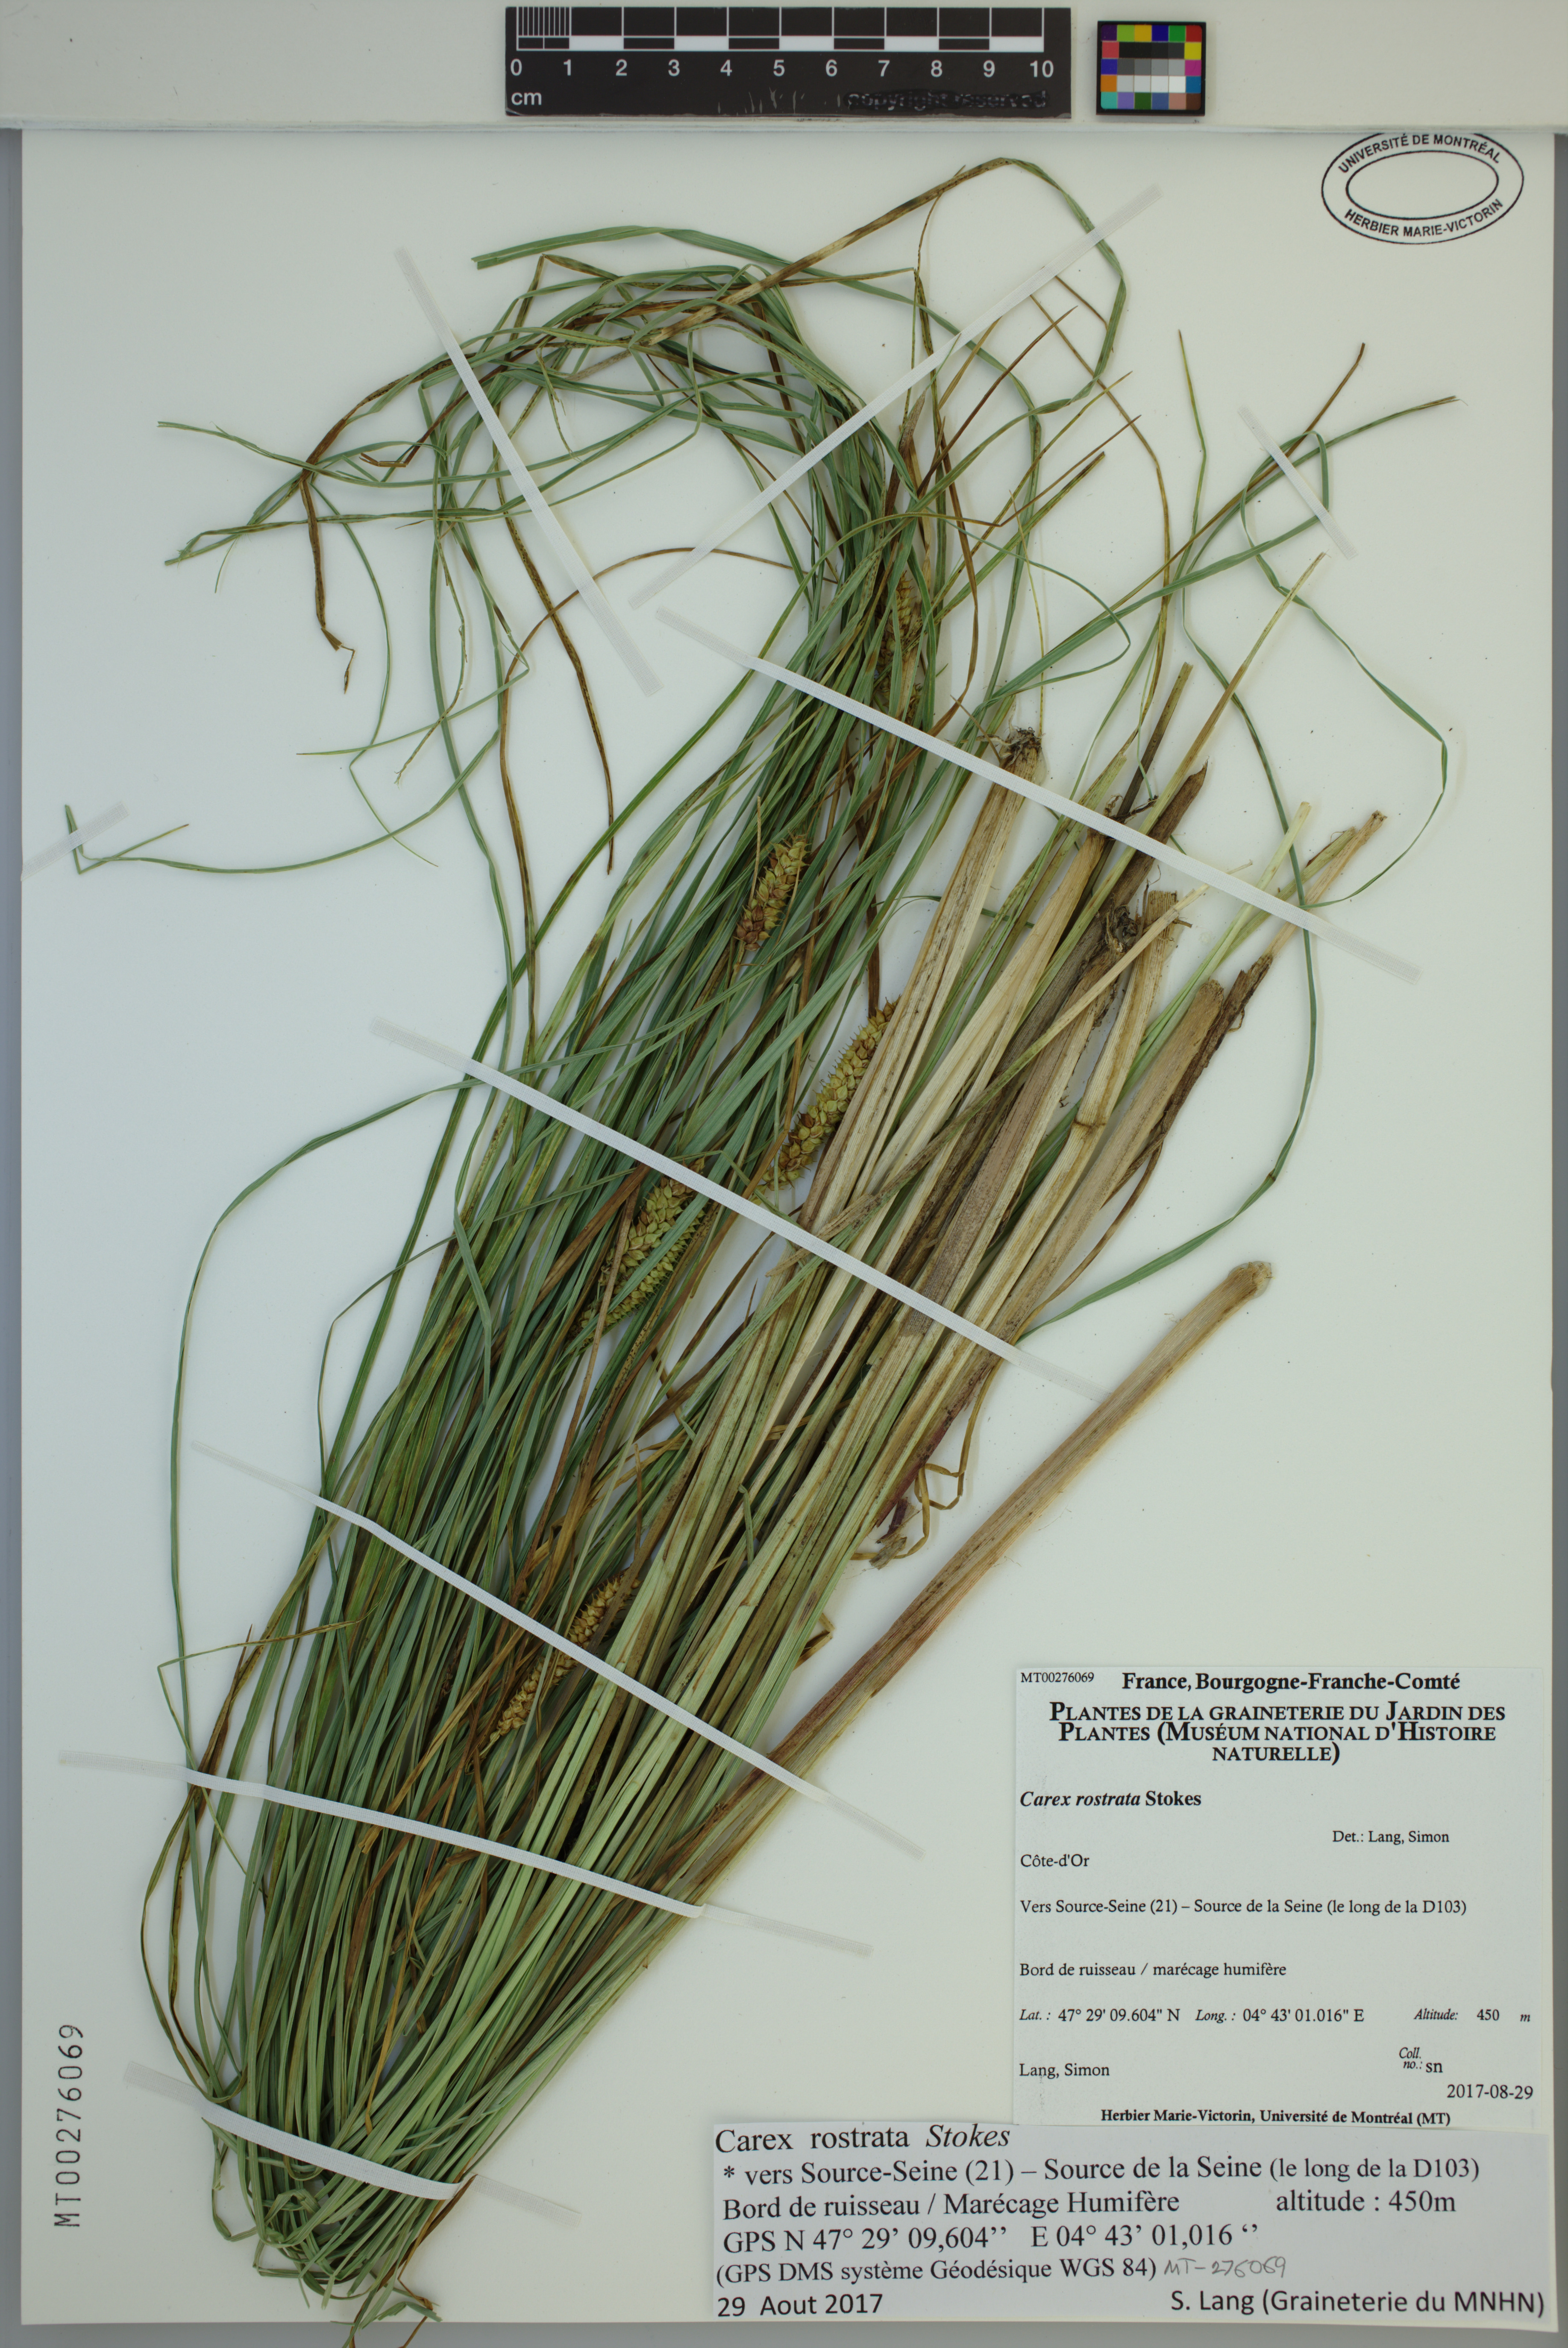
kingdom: Plantae
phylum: Tracheophyta
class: Liliopsida
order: Poales
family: Cyperaceae
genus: Carex
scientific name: Carex rostrata
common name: Bottle sedge
